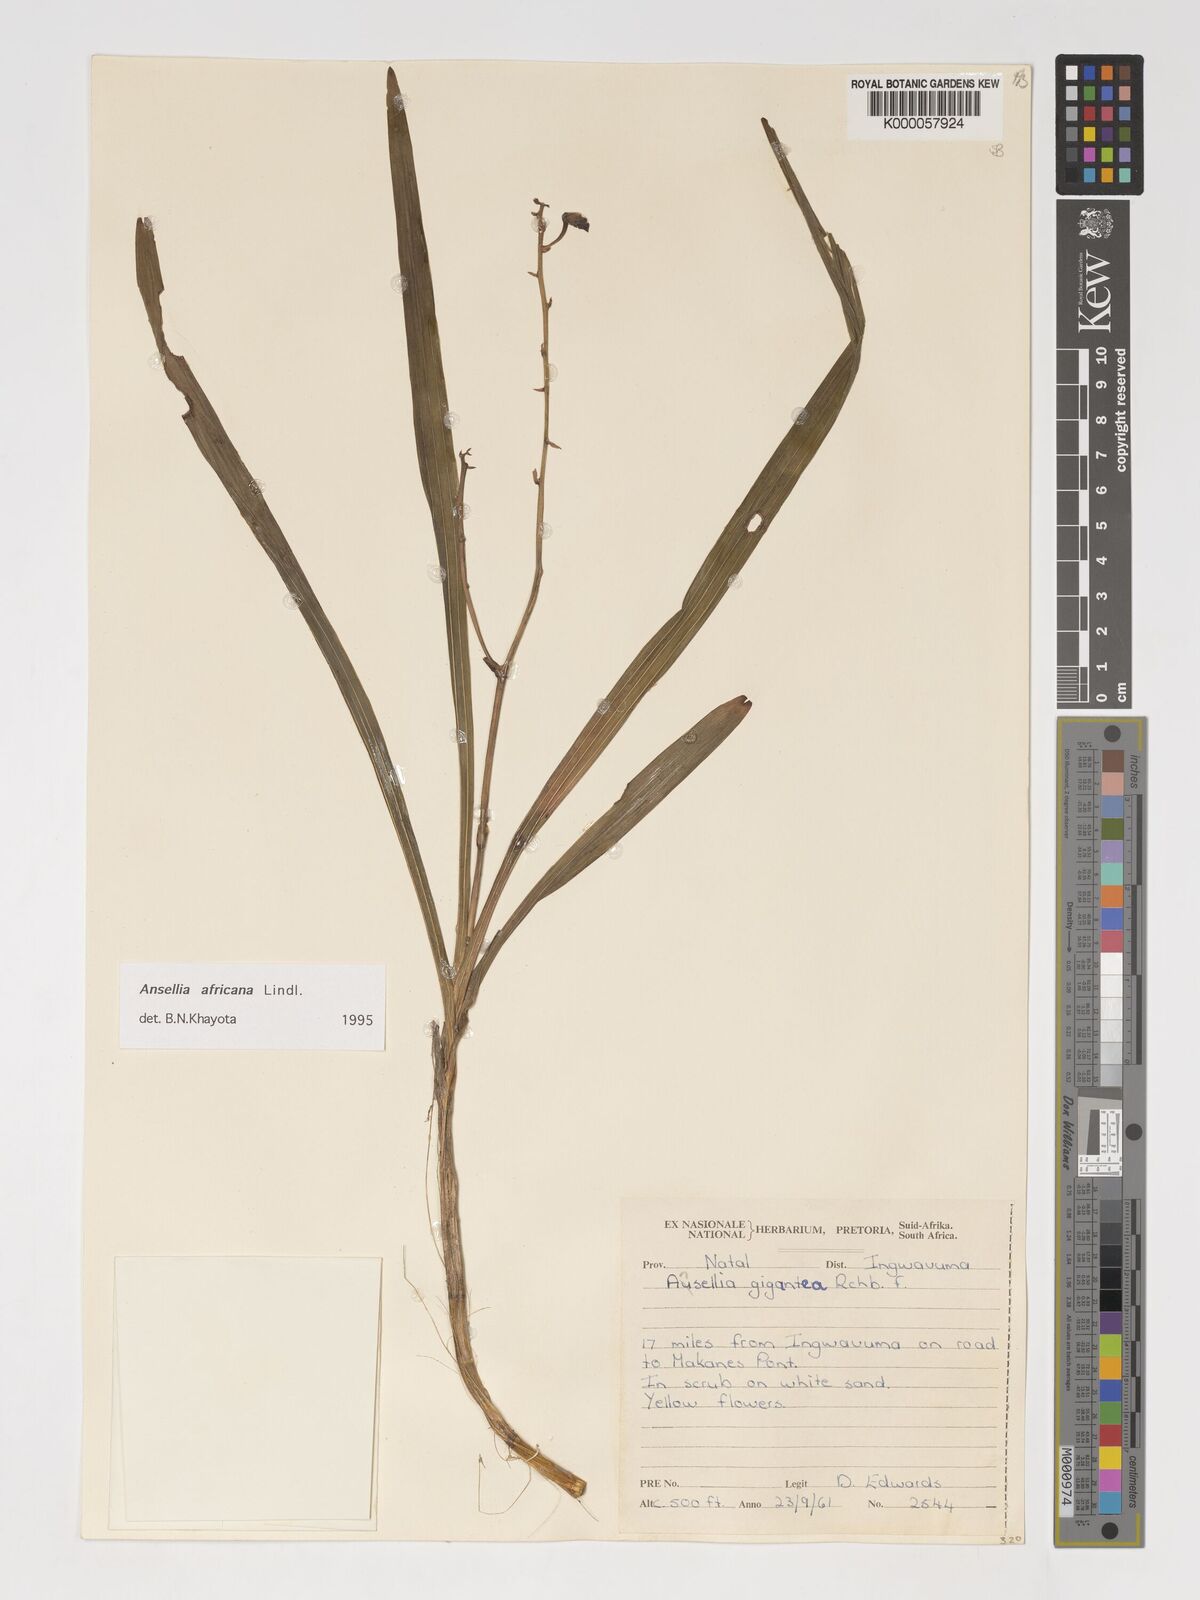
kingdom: Plantae
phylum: Tracheophyta
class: Liliopsida
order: Asparagales
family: Orchidaceae
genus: Ansellia
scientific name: Ansellia africana
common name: African ansellia
